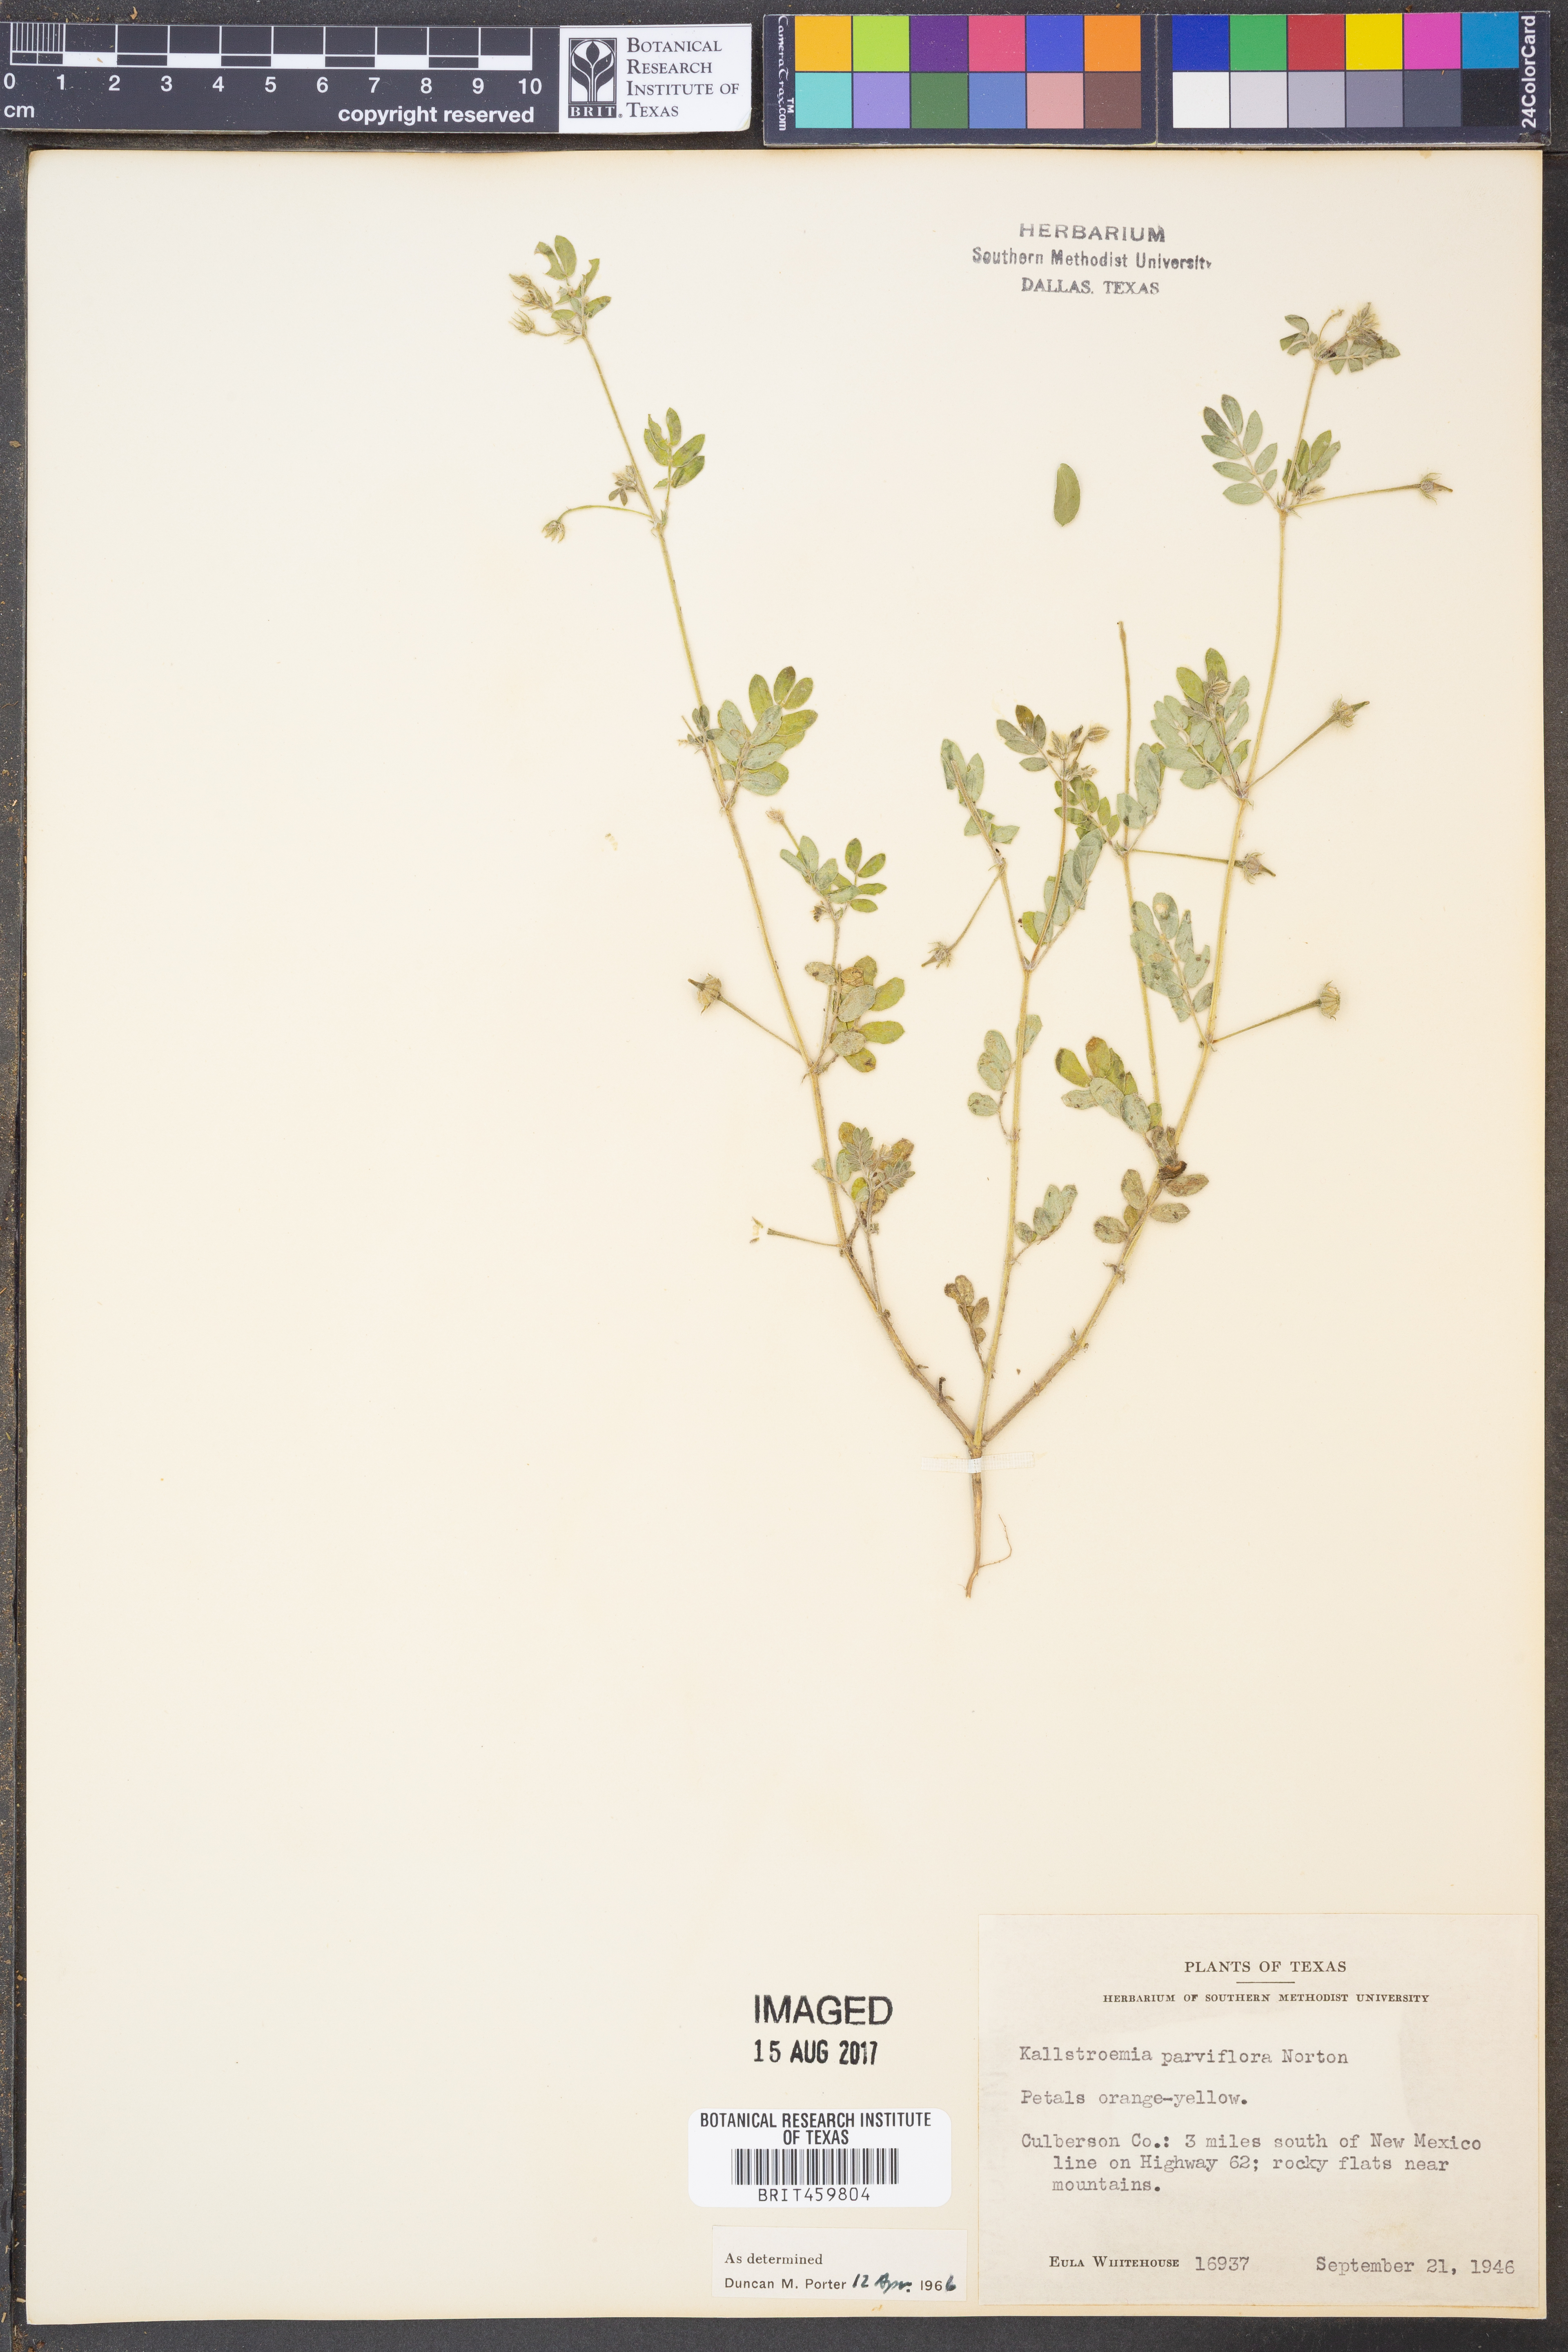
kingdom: Plantae
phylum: Tracheophyta
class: Magnoliopsida
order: Zygophyllales
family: Zygophyllaceae
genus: Kallstroemia
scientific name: Kallstroemia parviflora
